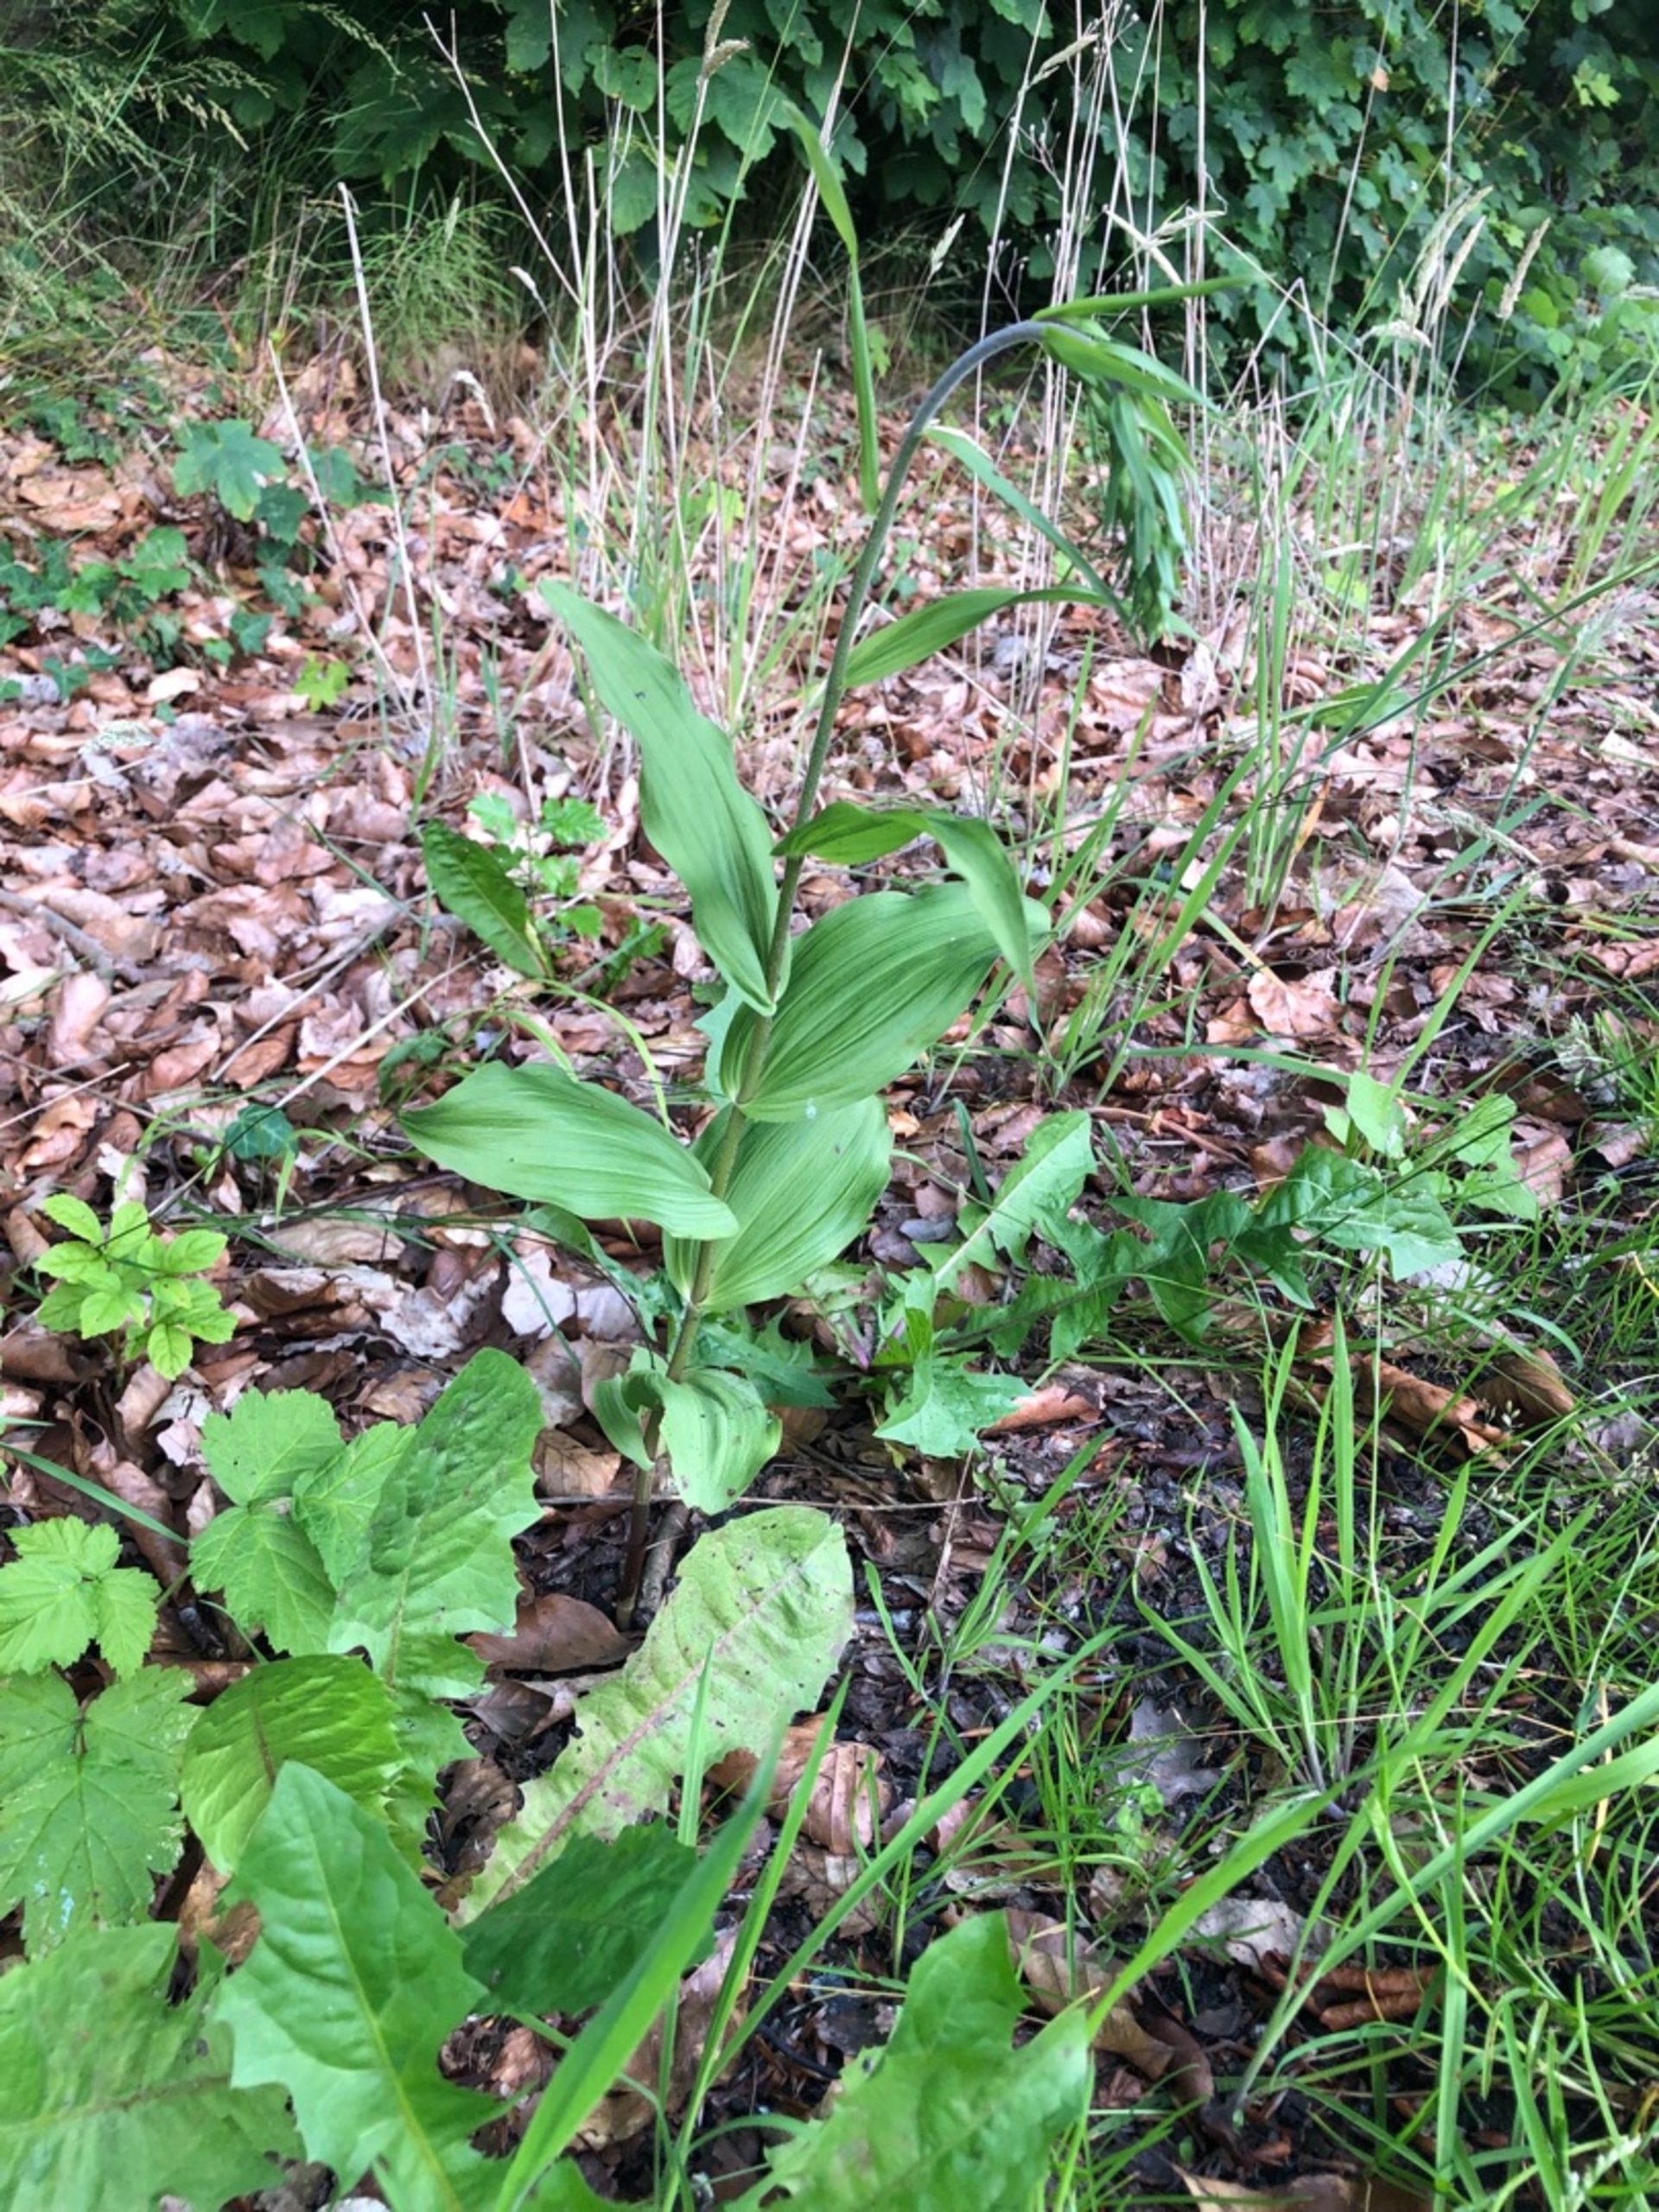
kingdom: Plantae
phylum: Tracheophyta
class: Liliopsida
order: Asparagales
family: Orchidaceae
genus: Epipactis
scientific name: Epipactis helleborine
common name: Skov-hullæbe
